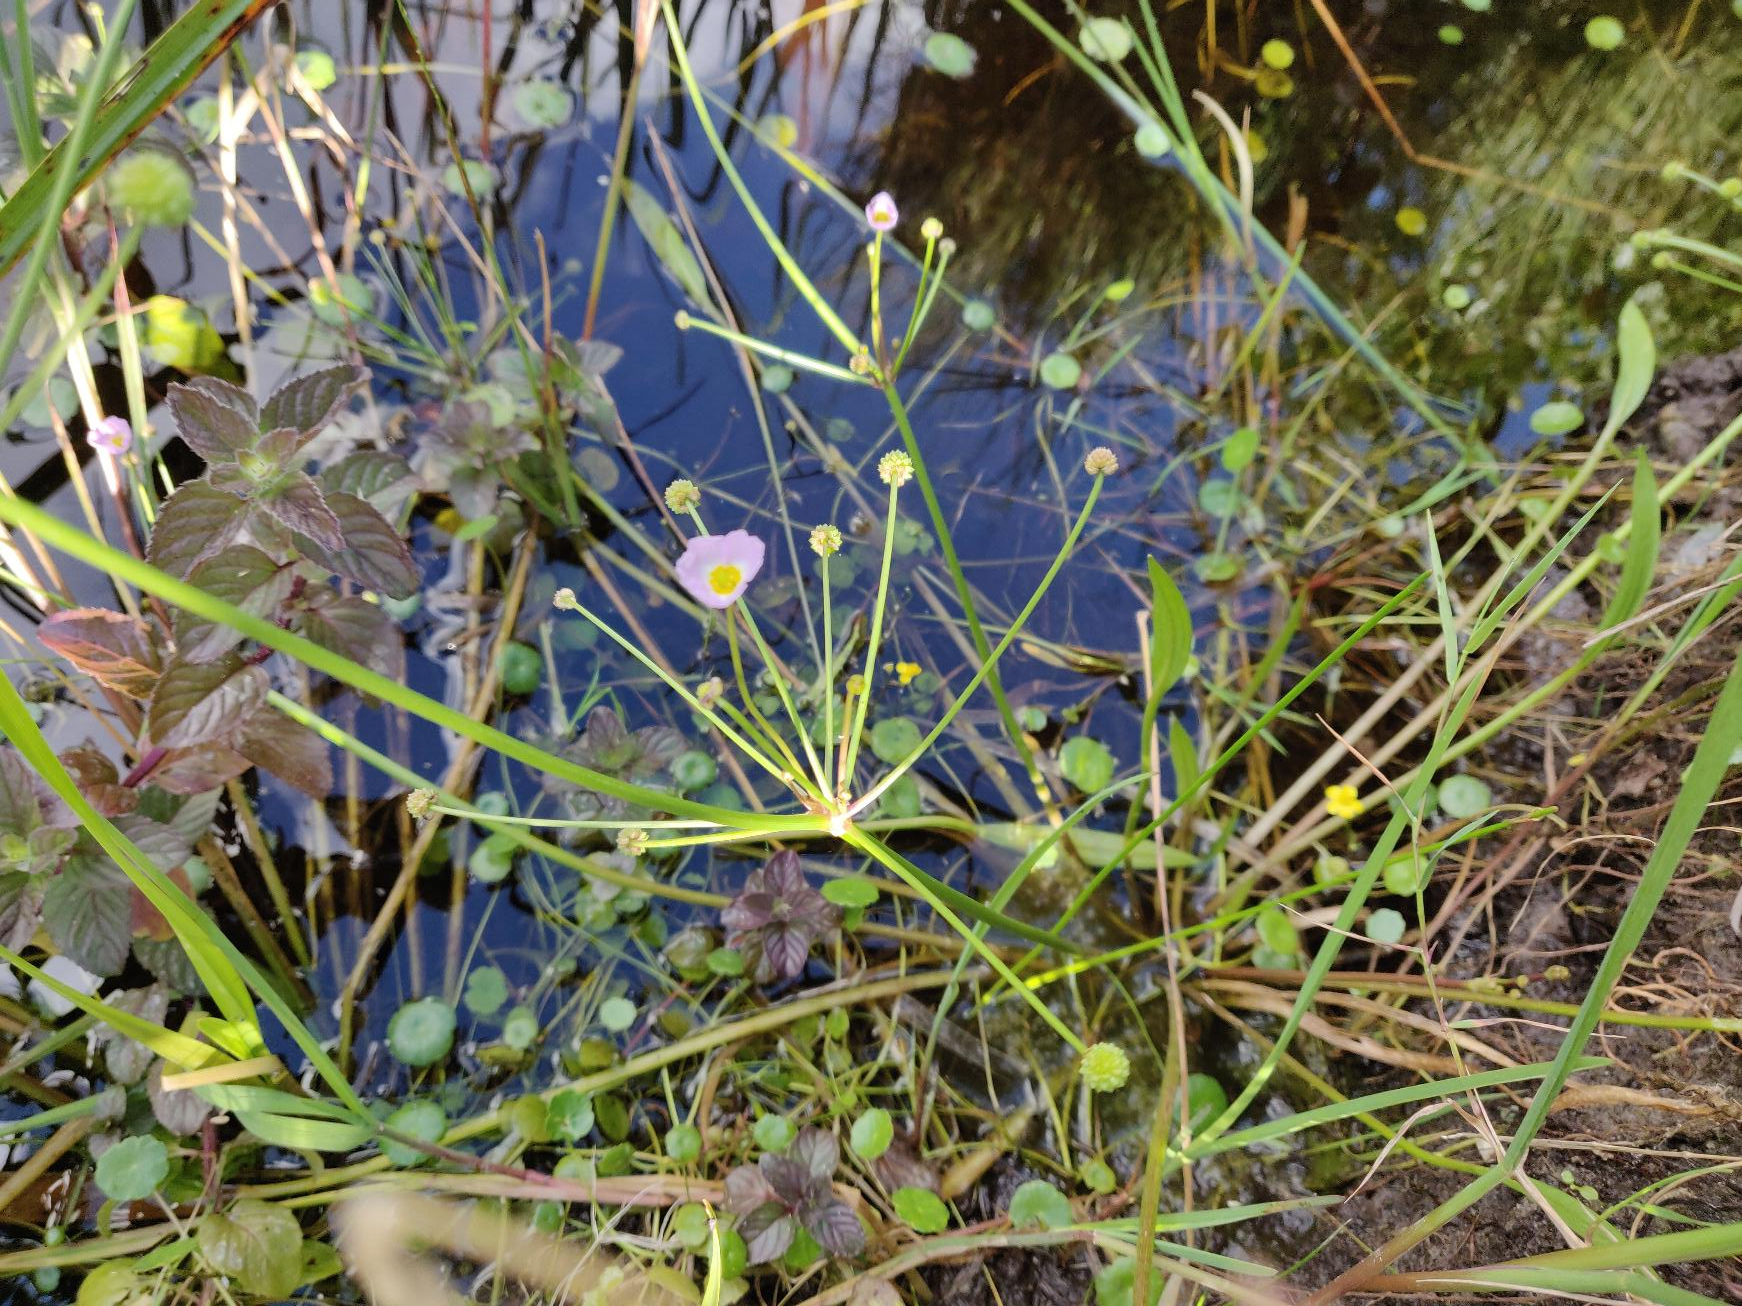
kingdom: Plantae
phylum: Tracheophyta
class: Liliopsida
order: Alismatales
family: Alismataceae
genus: Baldellia
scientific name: Baldellia ranunculoides
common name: Søpryd
